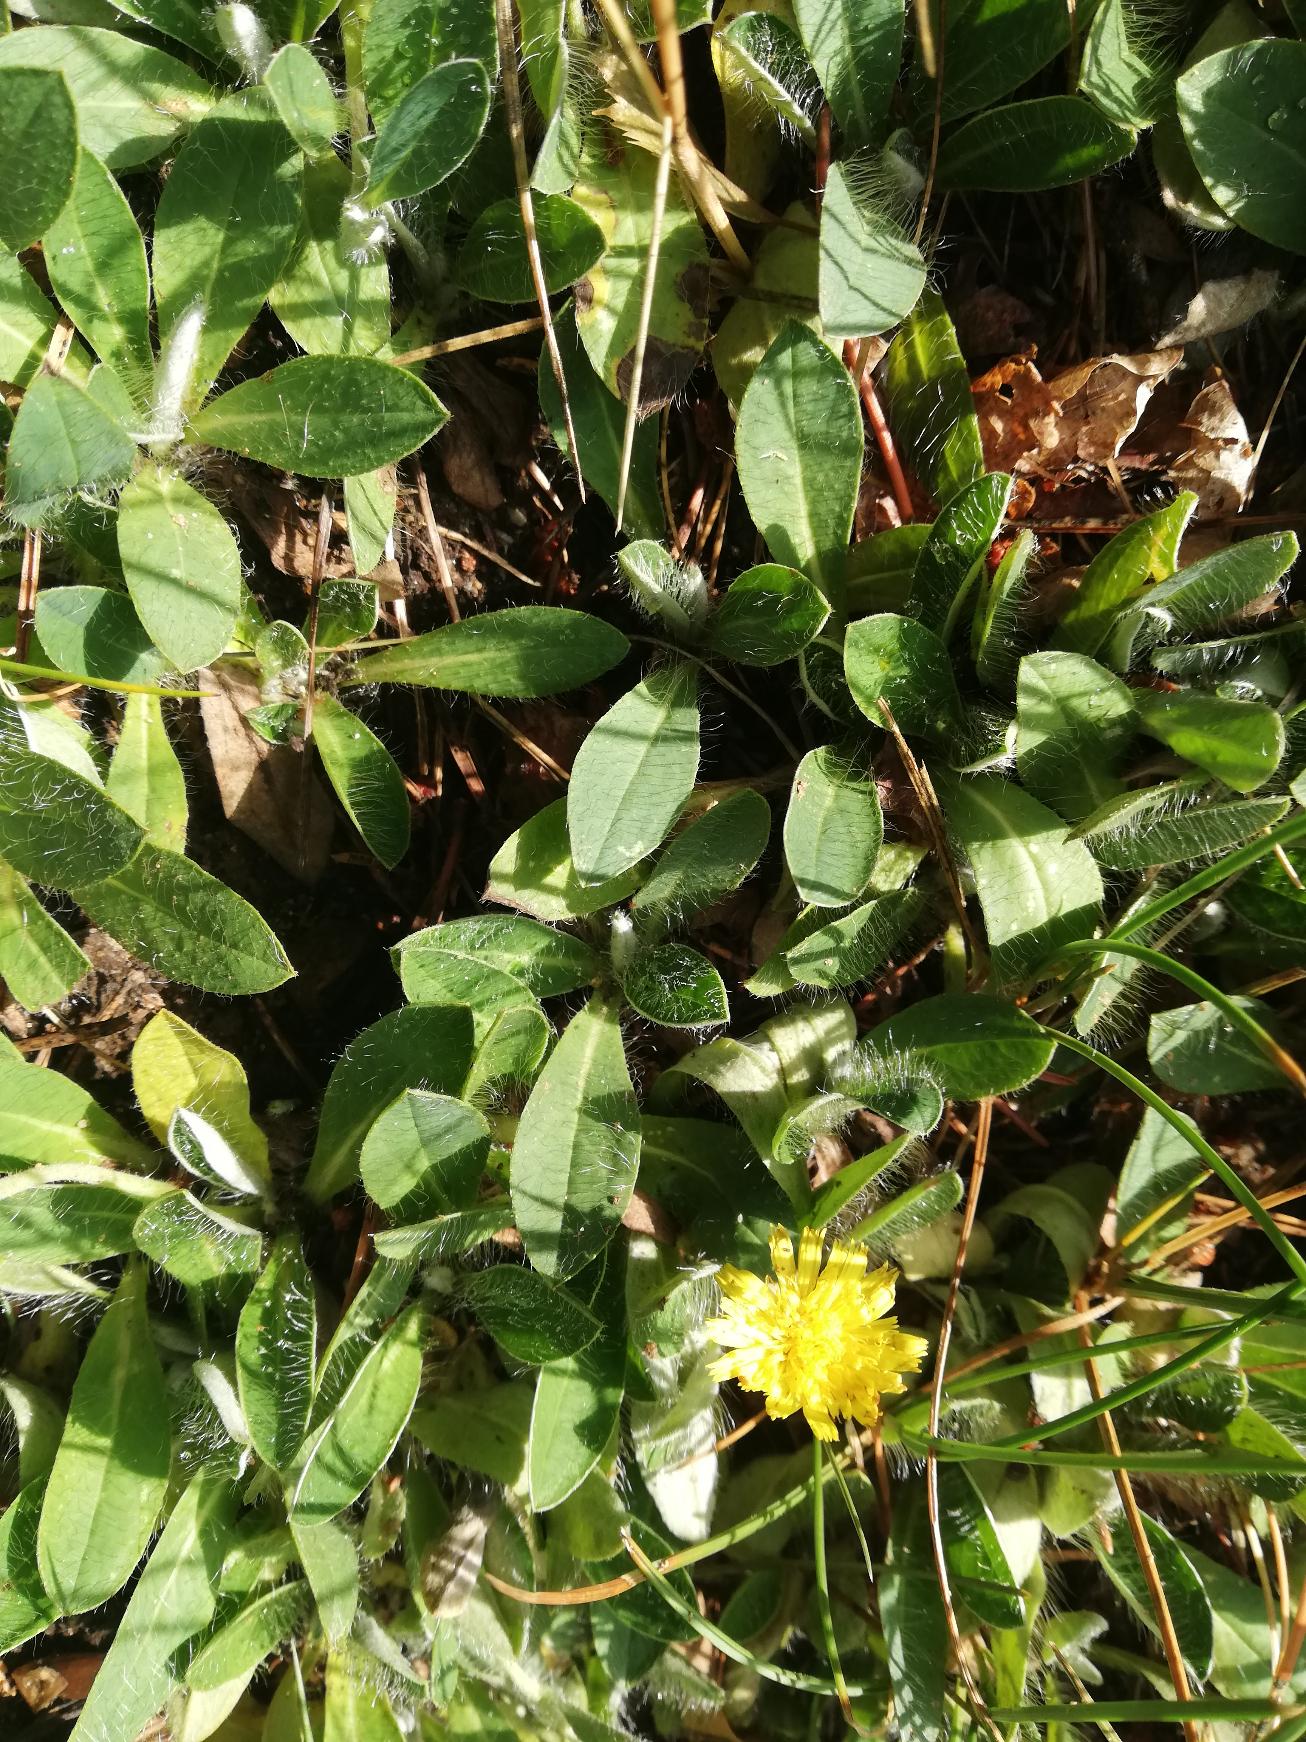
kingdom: Plantae
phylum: Tracheophyta
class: Magnoliopsida
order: Asterales
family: Asteraceae
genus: Pilosella
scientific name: Pilosella officinarum
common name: Håret høgeurt
